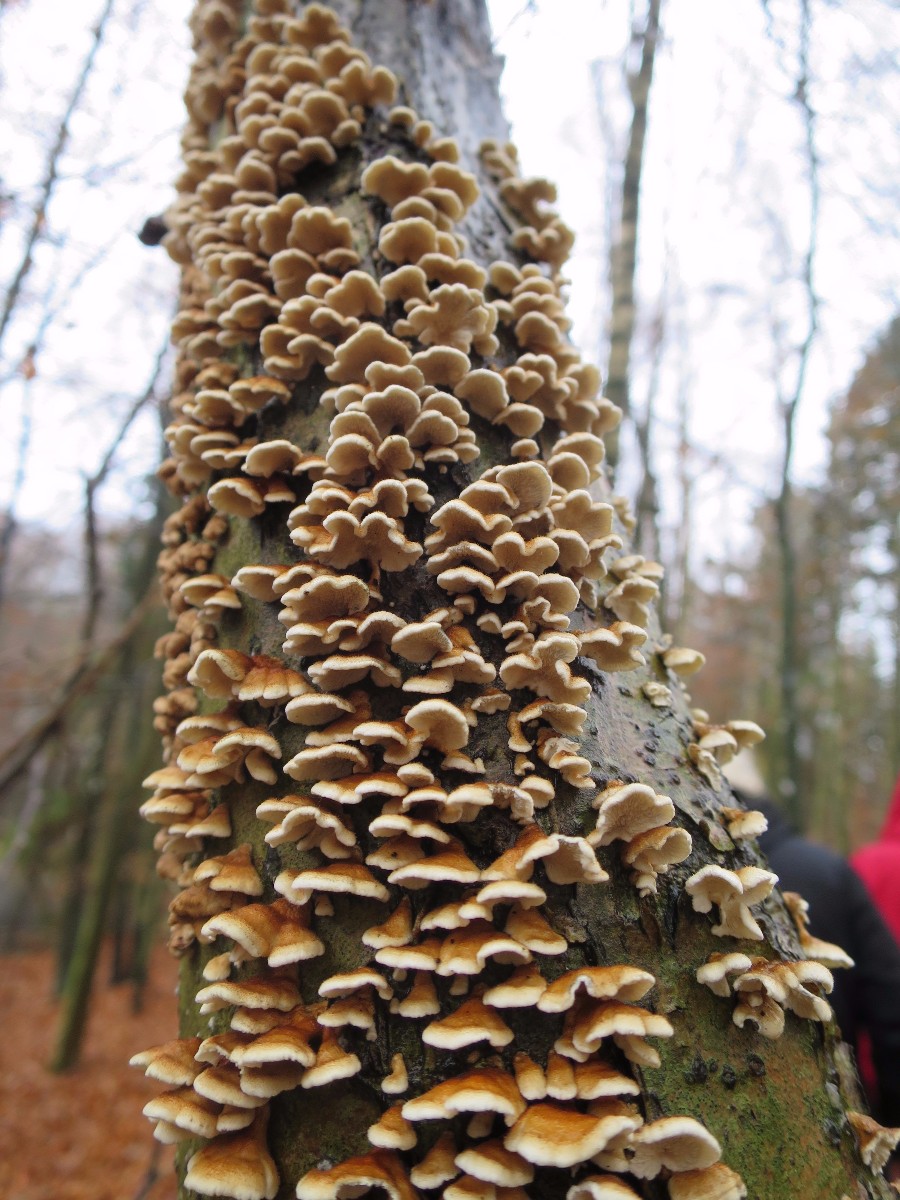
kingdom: Fungi
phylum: Basidiomycota
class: Agaricomycetes
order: Amylocorticiales
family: Amylocorticiaceae
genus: Plicaturopsis
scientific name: Plicaturopsis crispa
